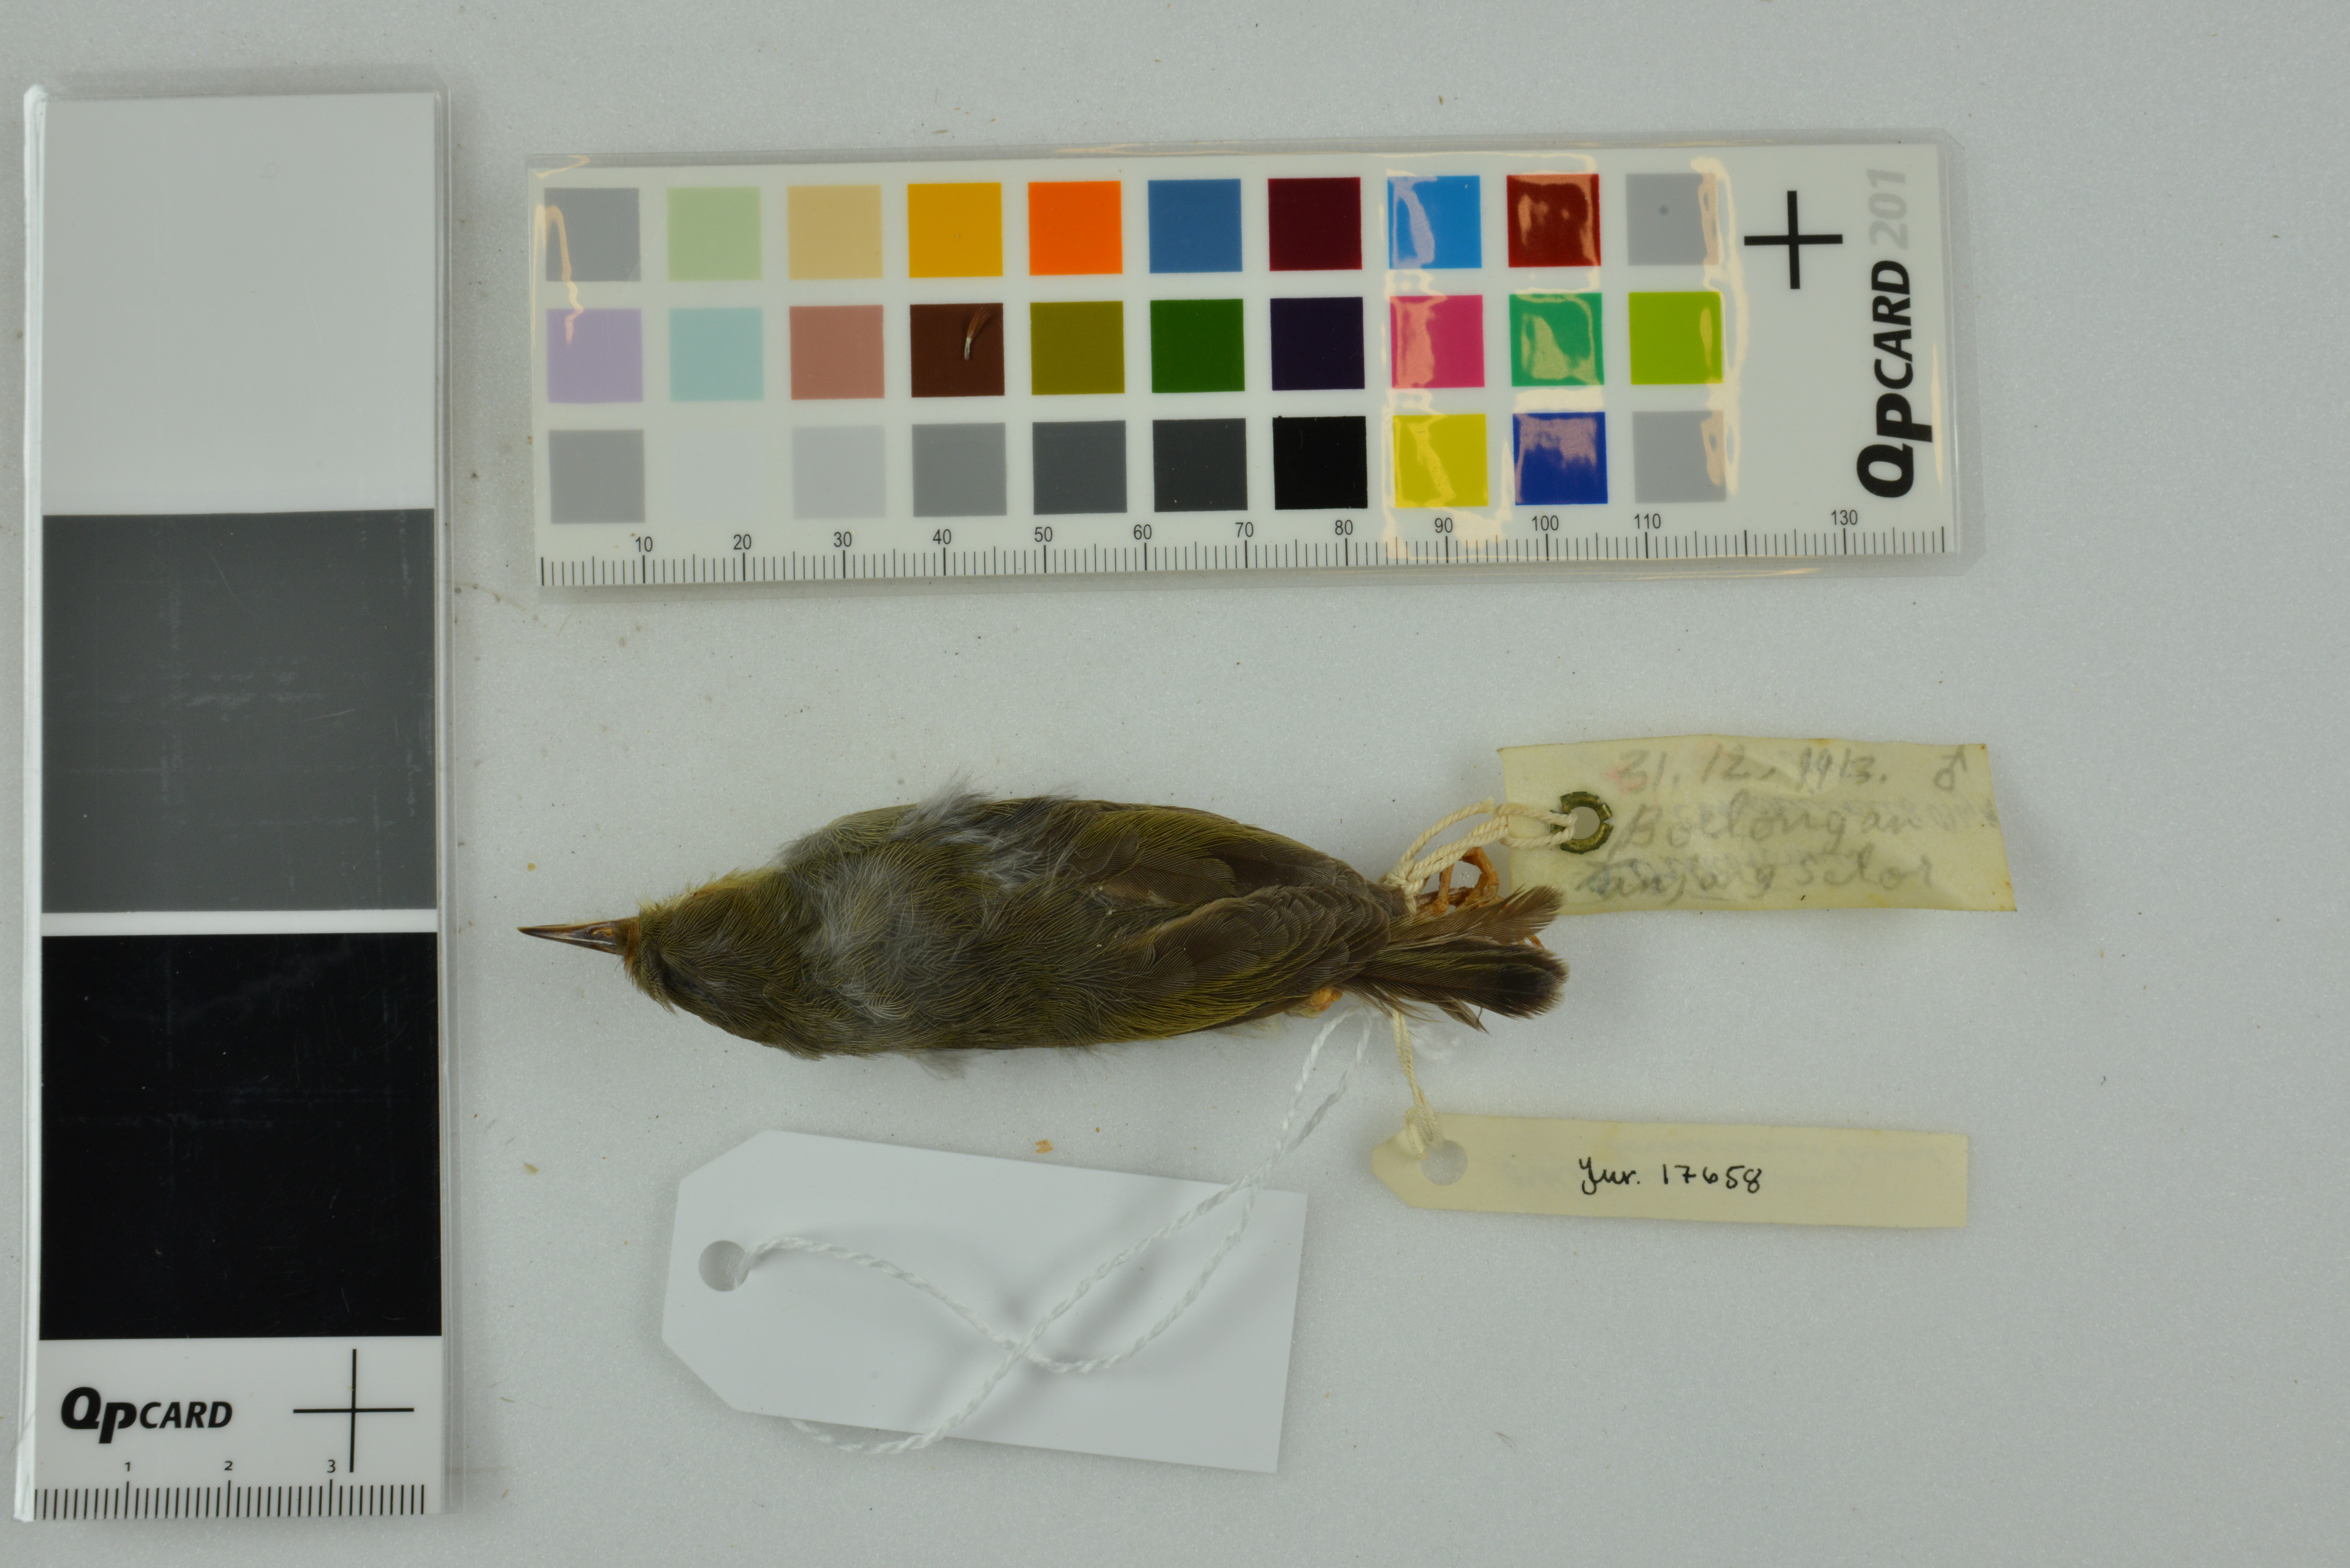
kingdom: Animalia
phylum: Chordata
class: Aves
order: Passeriformes
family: Cisticolidae
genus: Orthotomus
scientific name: Orthotomus ruficeps
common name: Ashy tailorbird
